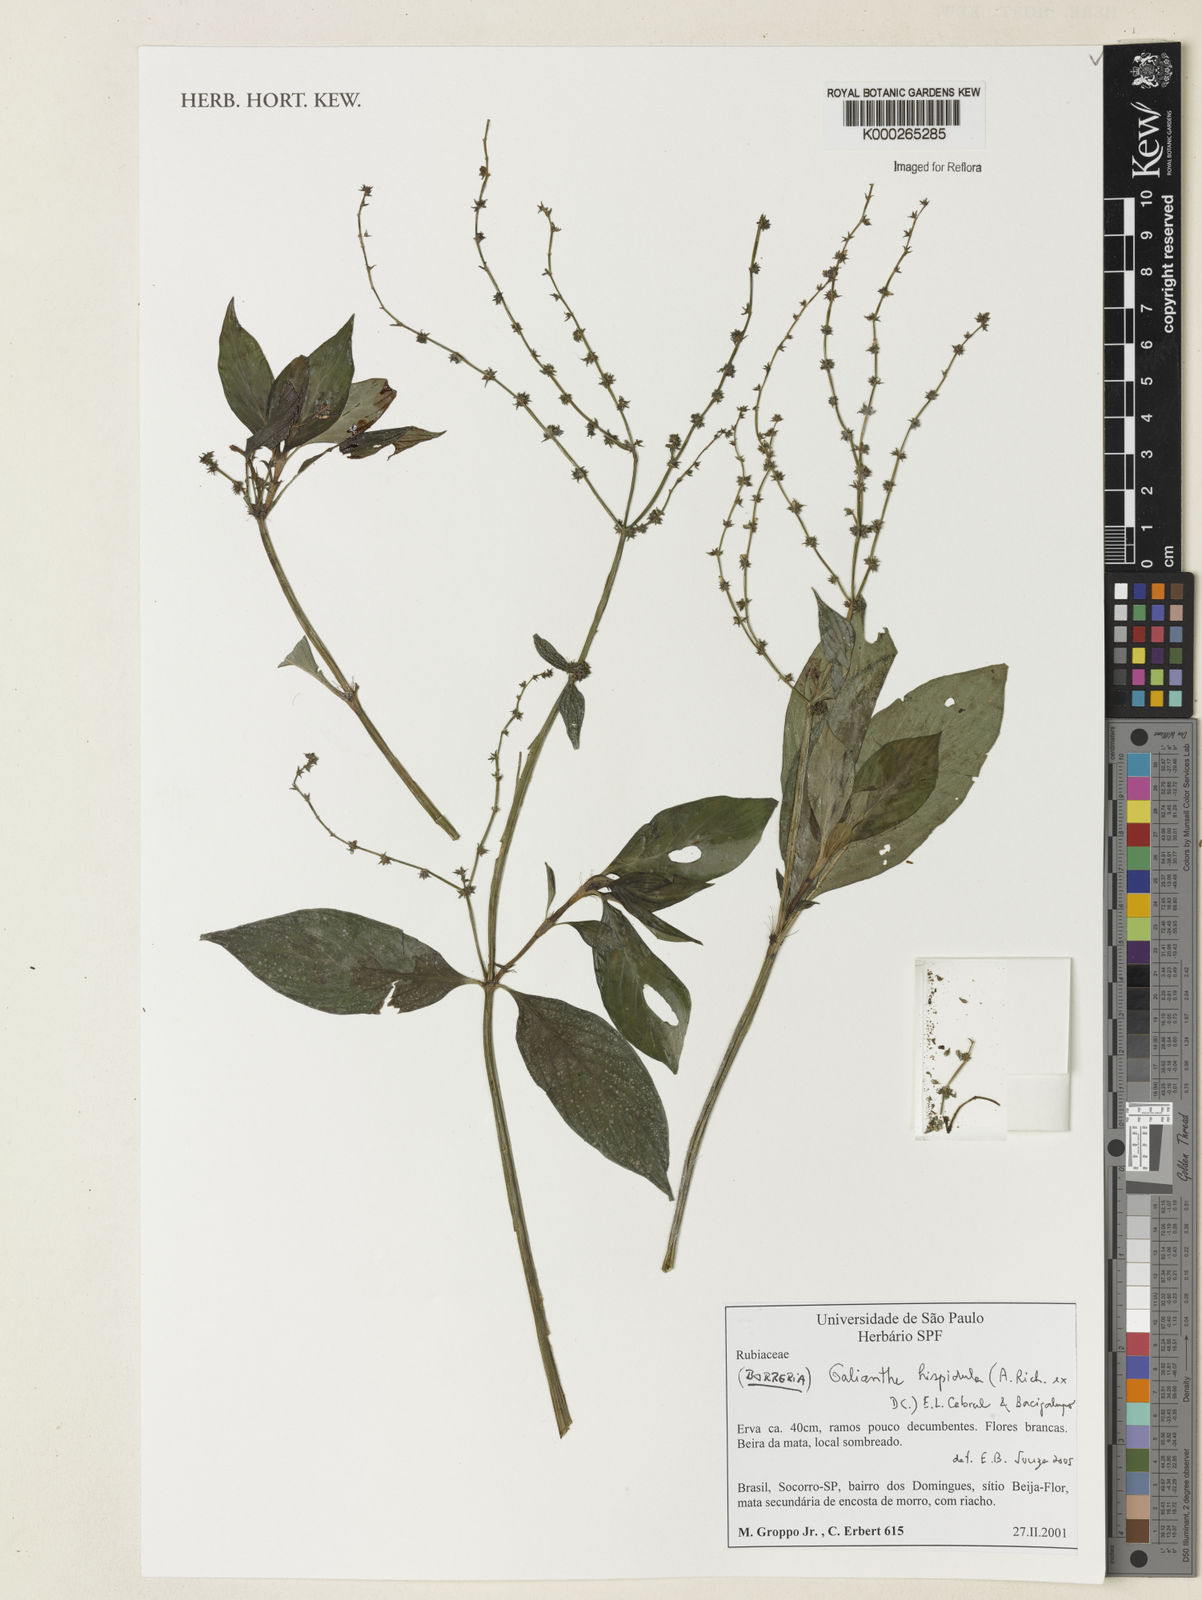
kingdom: Plantae
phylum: Tracheophyta
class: Magnoliopsida
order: Gentianales
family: Rubiaceae
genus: Galianthe
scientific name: Galianthe hispidula
